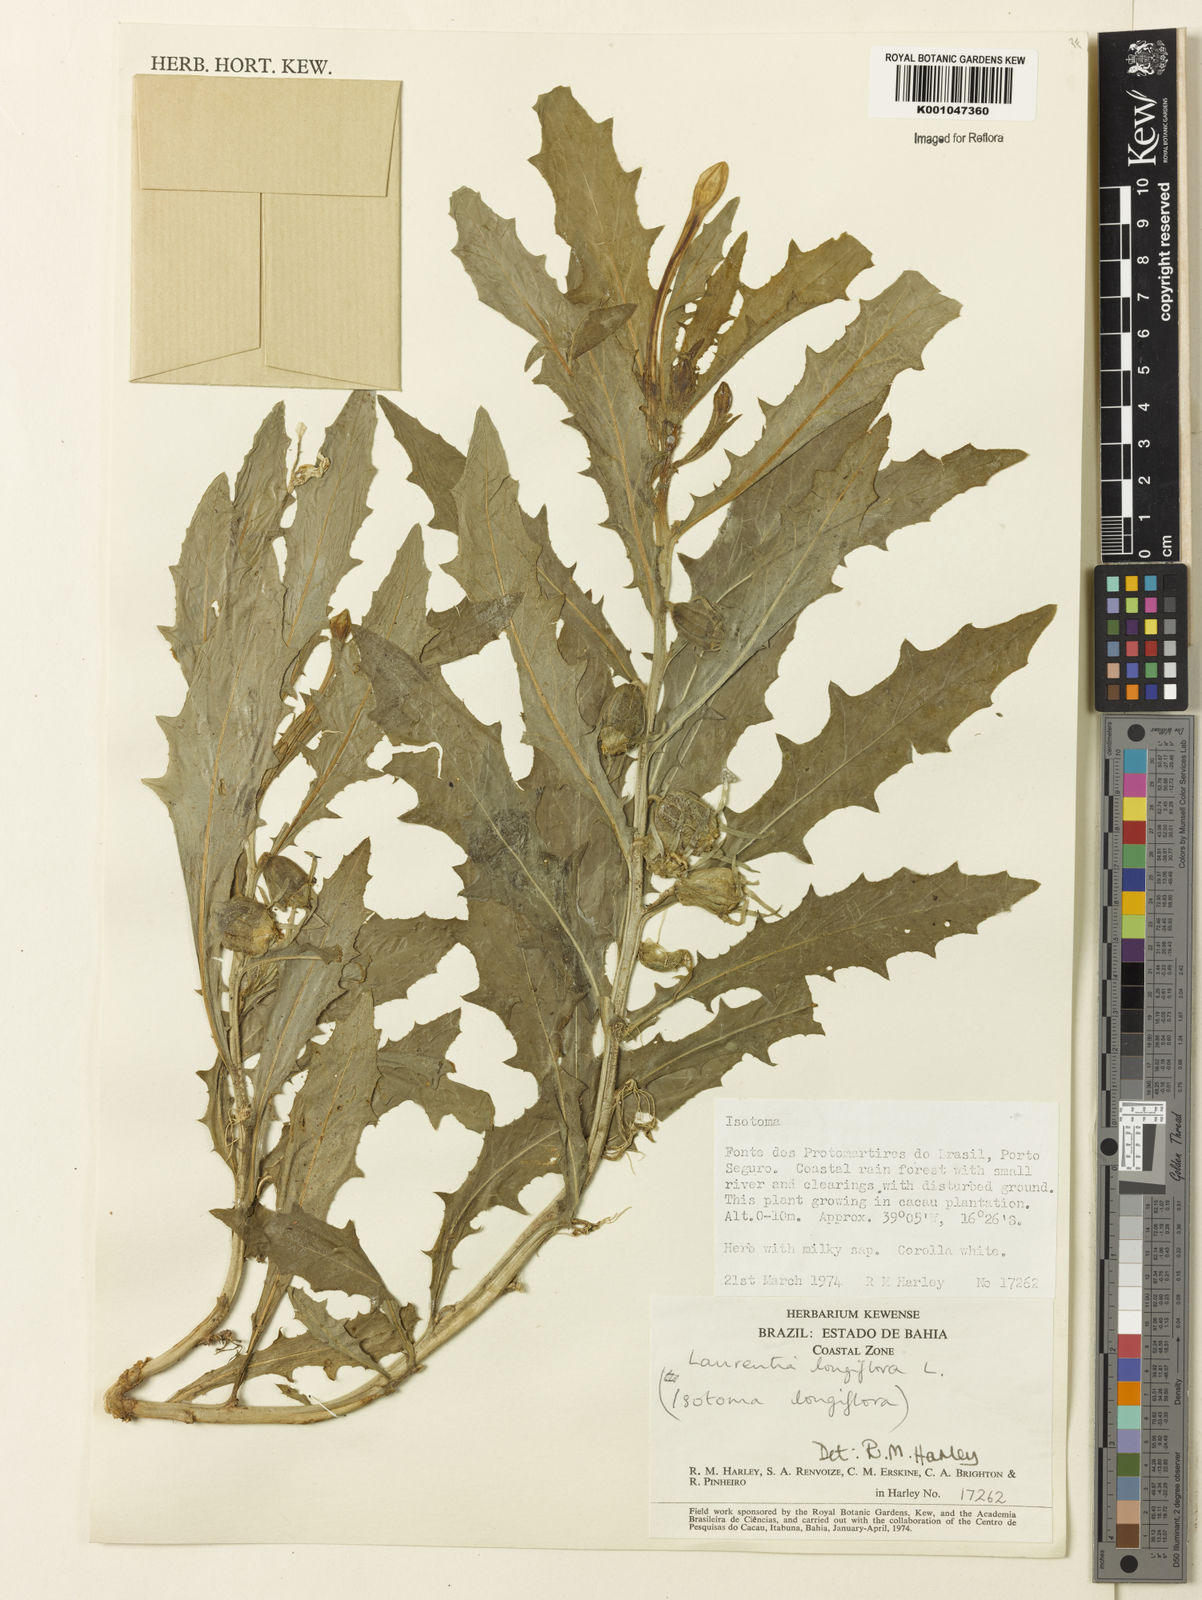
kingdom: Plantae
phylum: Tracheophyta
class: Magnoliopsida
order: Asterales
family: Campanulaceae
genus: Hippobroma
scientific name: Hippobroma longiflora
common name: Madamfate
